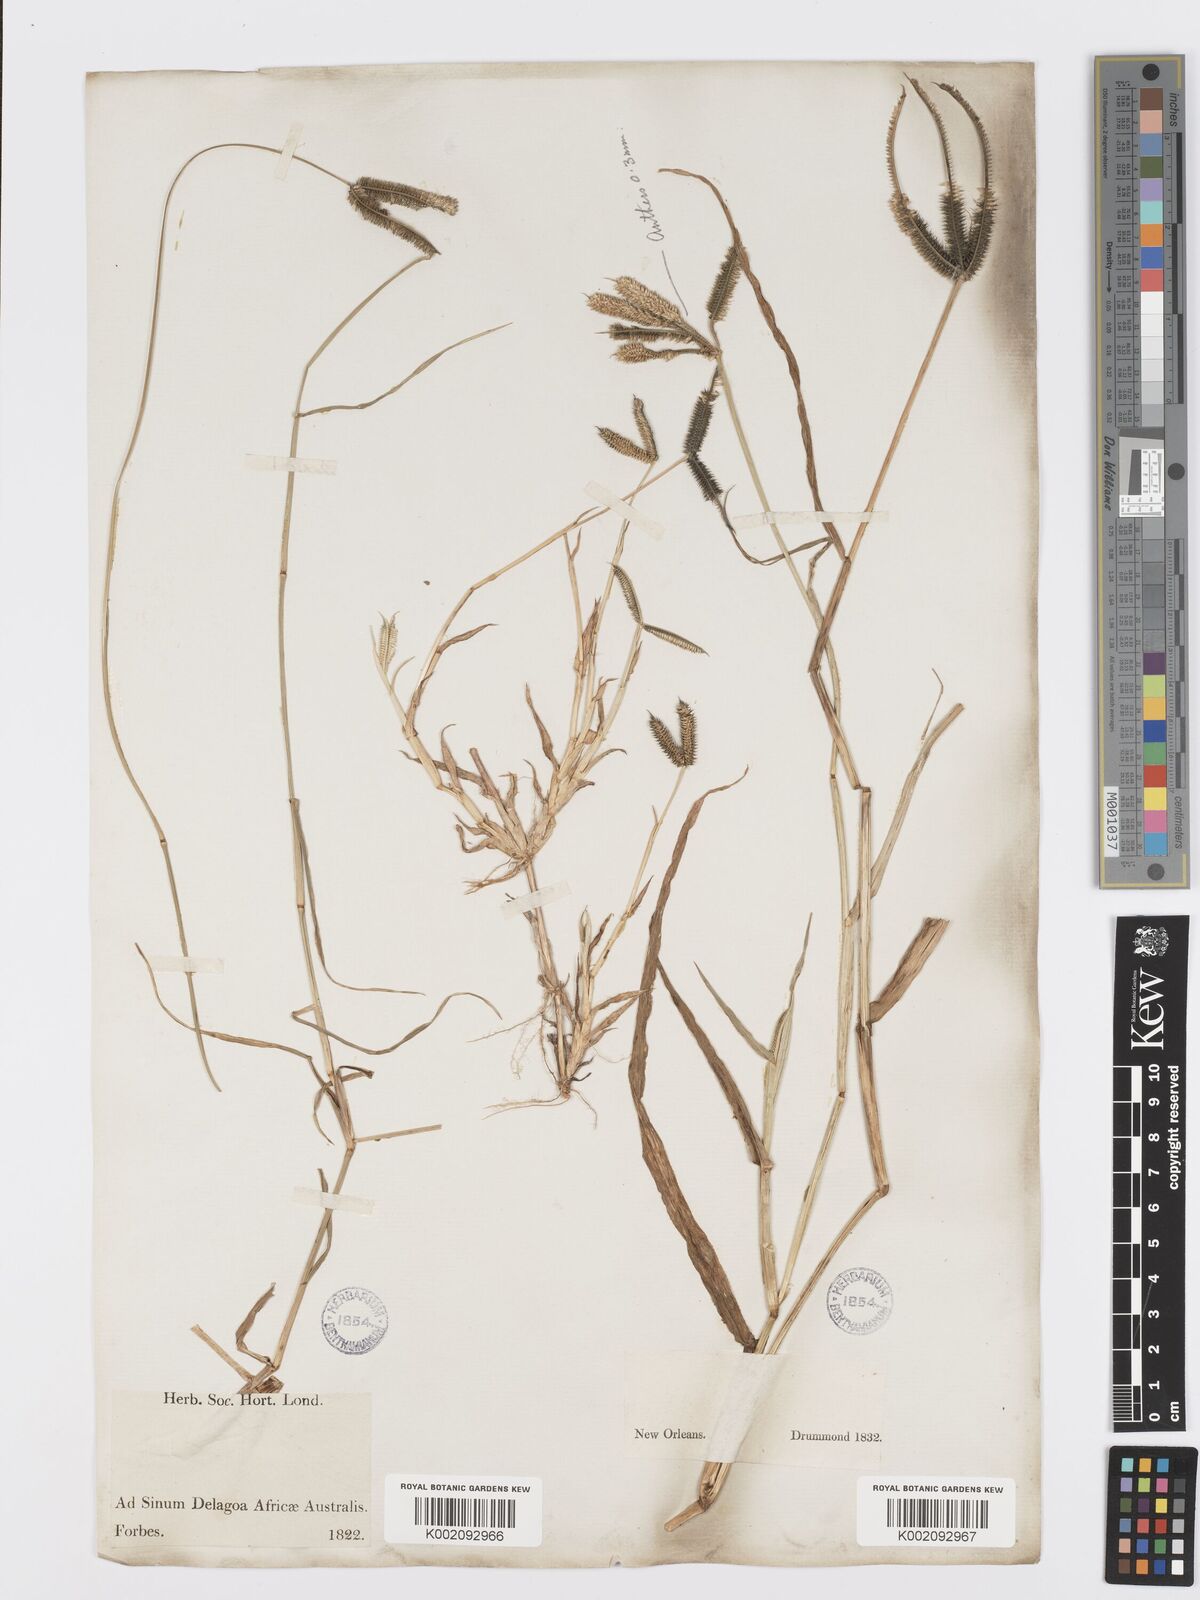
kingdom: Plantae
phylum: Tracheophyta
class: Liliopsida
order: Poales
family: Poaceae
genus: Dactyloctenium
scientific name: Dactyloctenium aegyptium
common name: Egyptian grass
